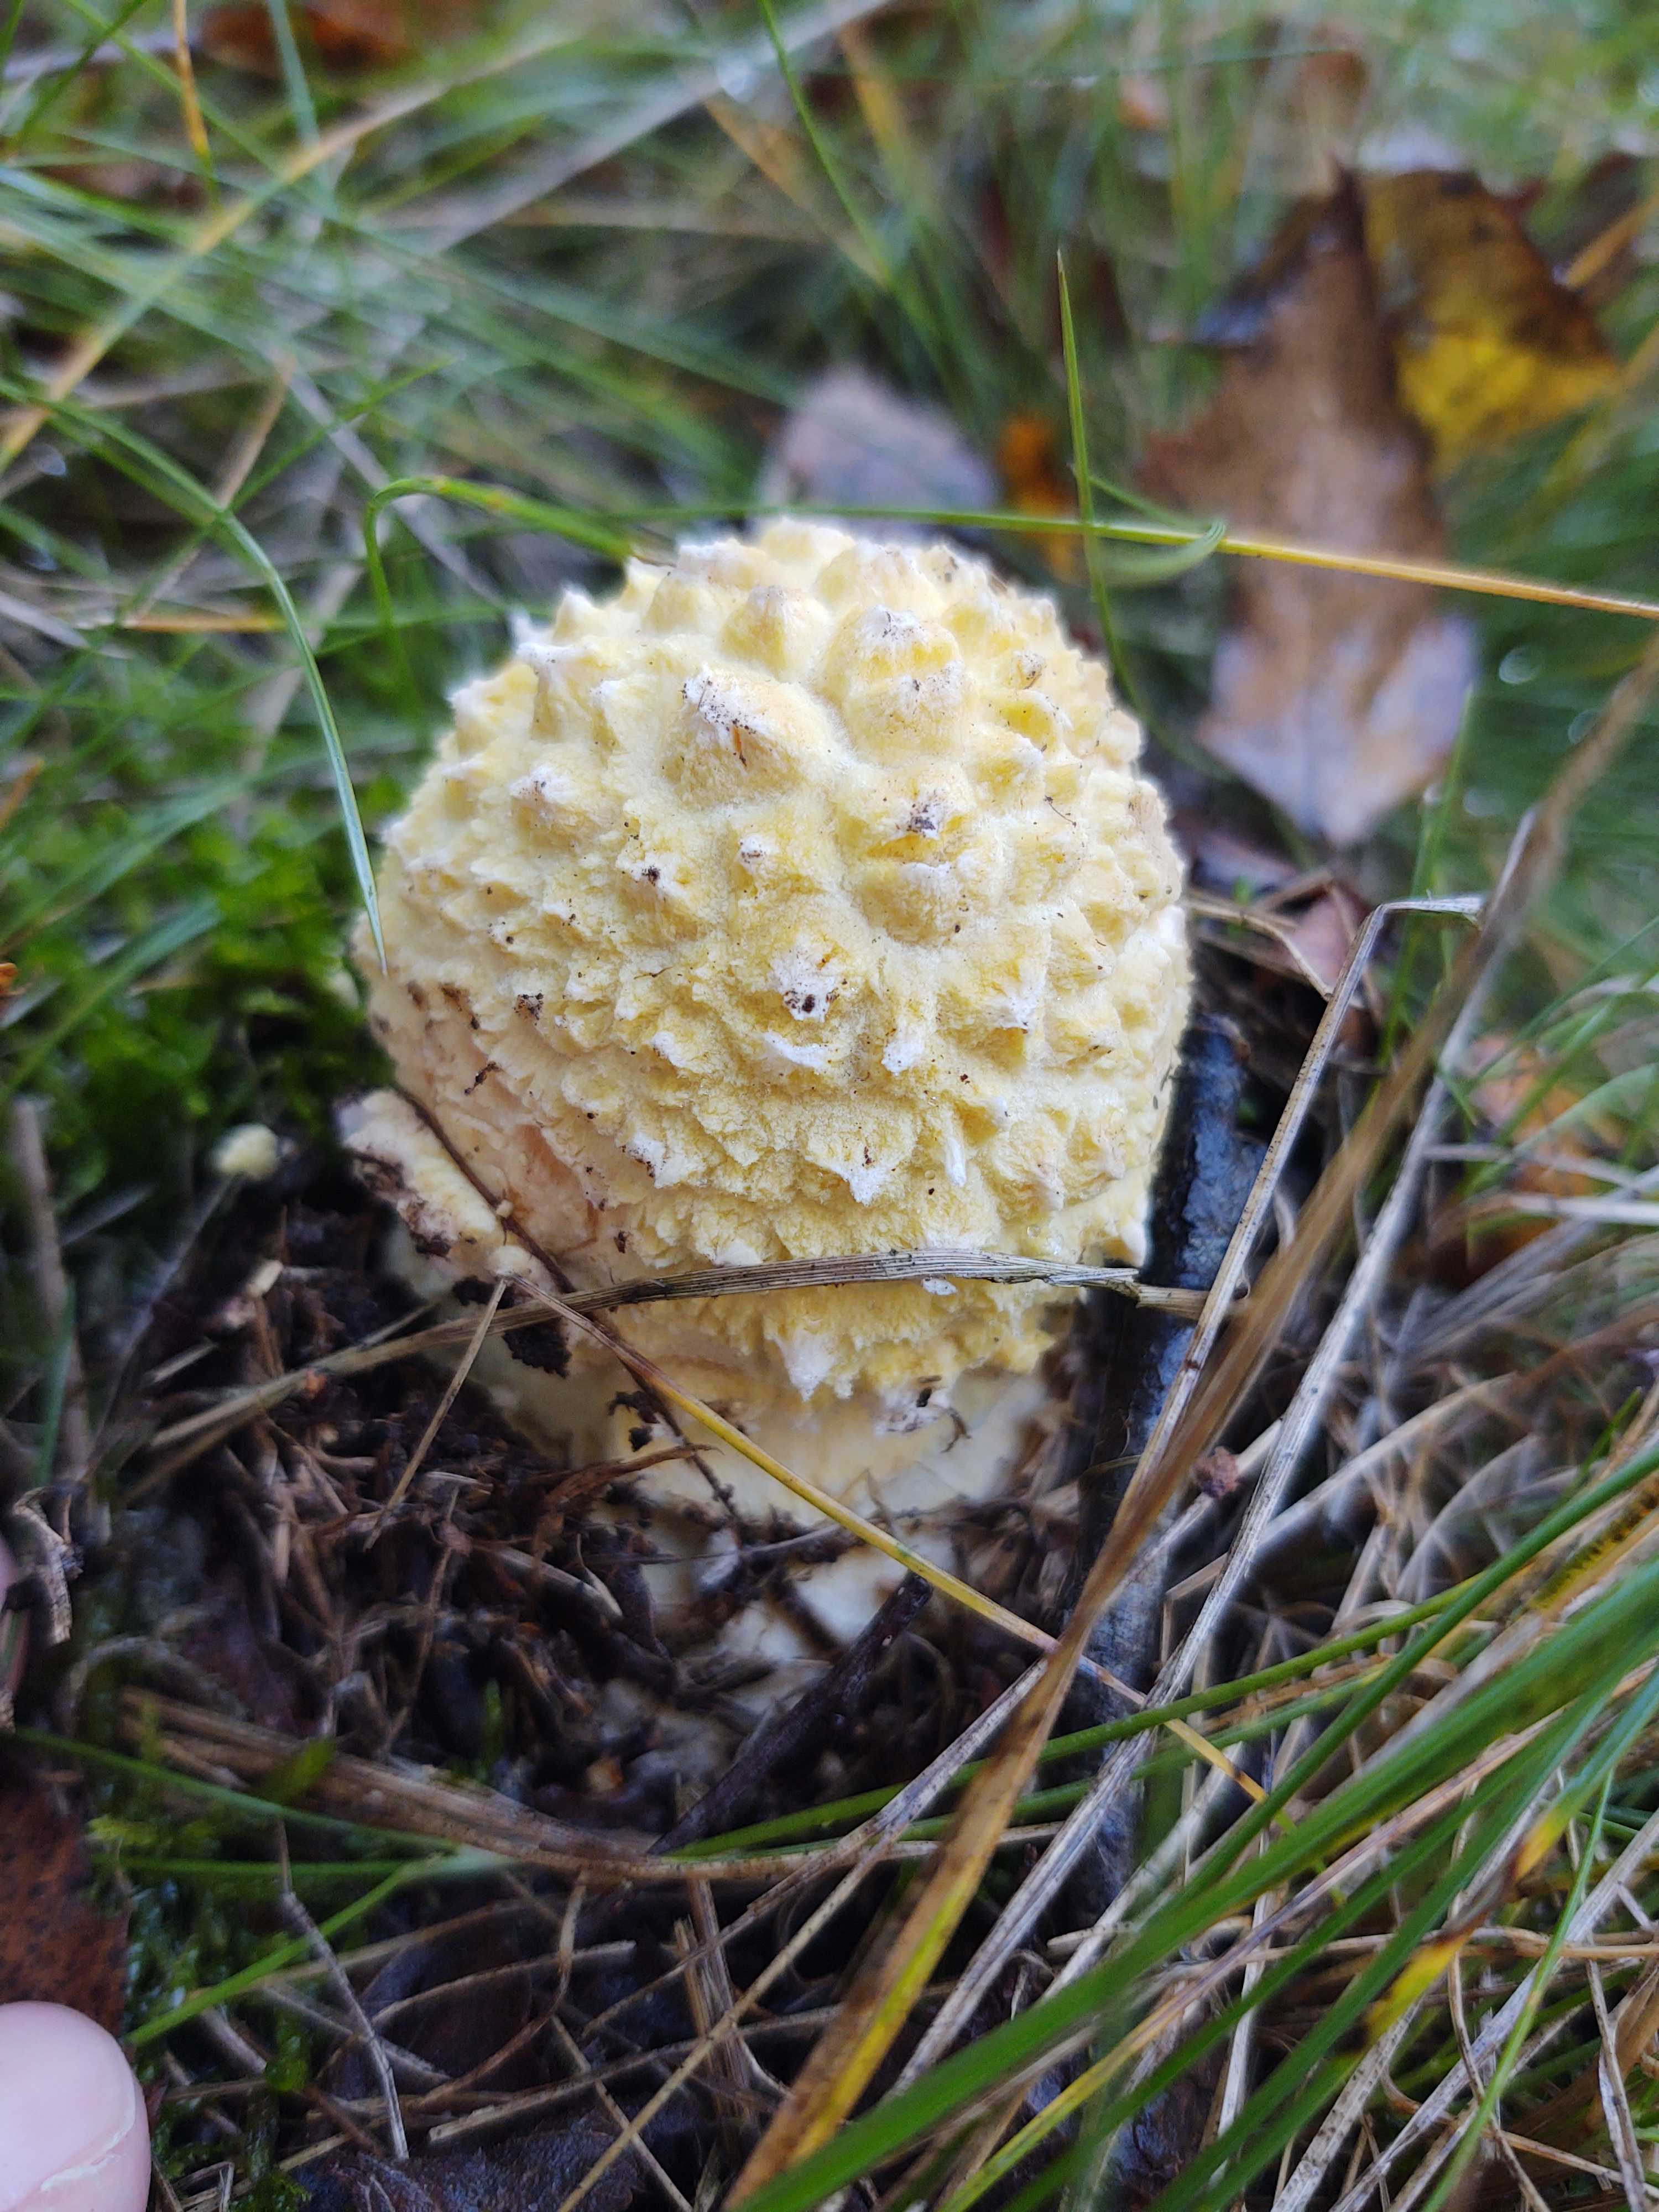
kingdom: Fungi
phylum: Basidiomycota
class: Agaricomycetes
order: Agaricales
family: Amanitaceae
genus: Amanita
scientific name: Amanita muscaria
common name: rød fluesvamp
